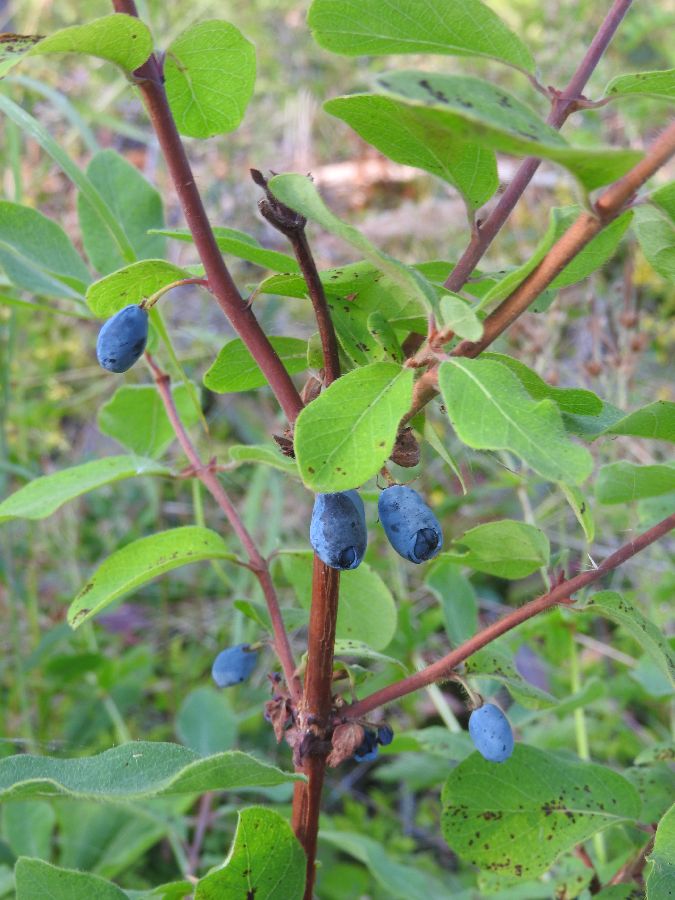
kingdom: Plantae
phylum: Tracheophyta
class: Magnoliopsida
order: Dipsacales
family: Caprifoliaceae
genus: Lonicera
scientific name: Lonicera caerulea
